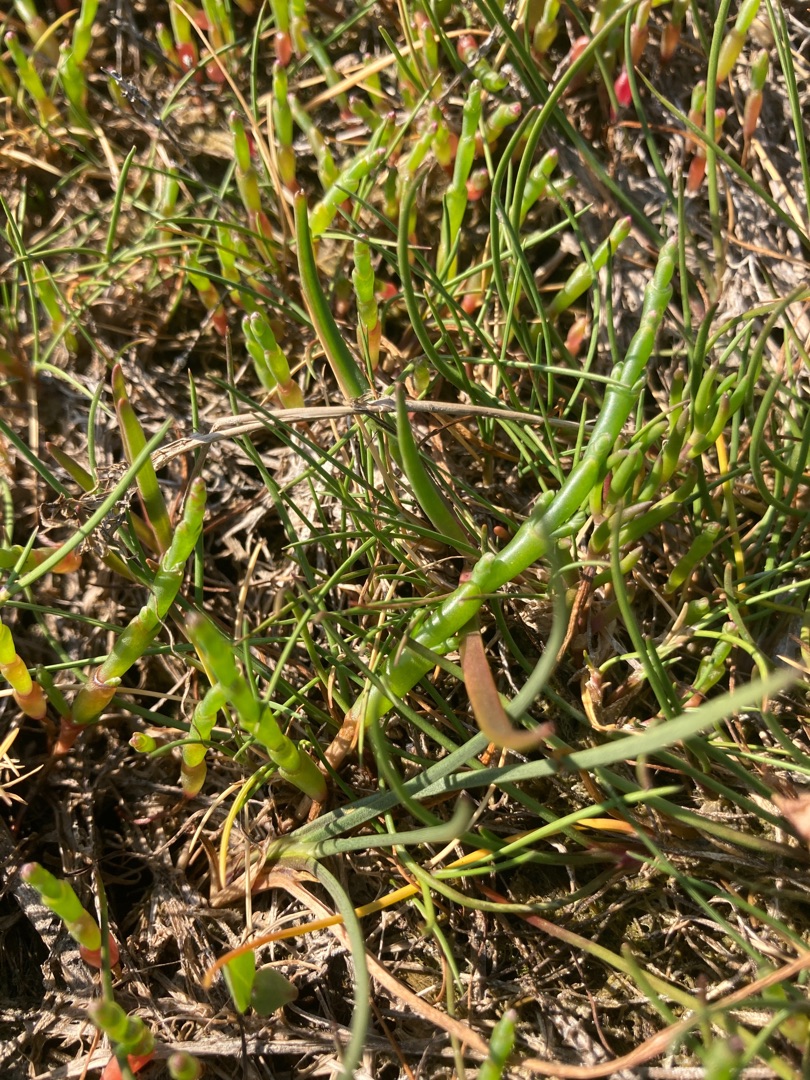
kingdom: Plantae
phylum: Tracheophyta
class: Magnoliopsida
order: Caryophyllales
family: Amaranthaceae
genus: Salicornia
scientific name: Salicornia europaea
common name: Almindelig salturt
